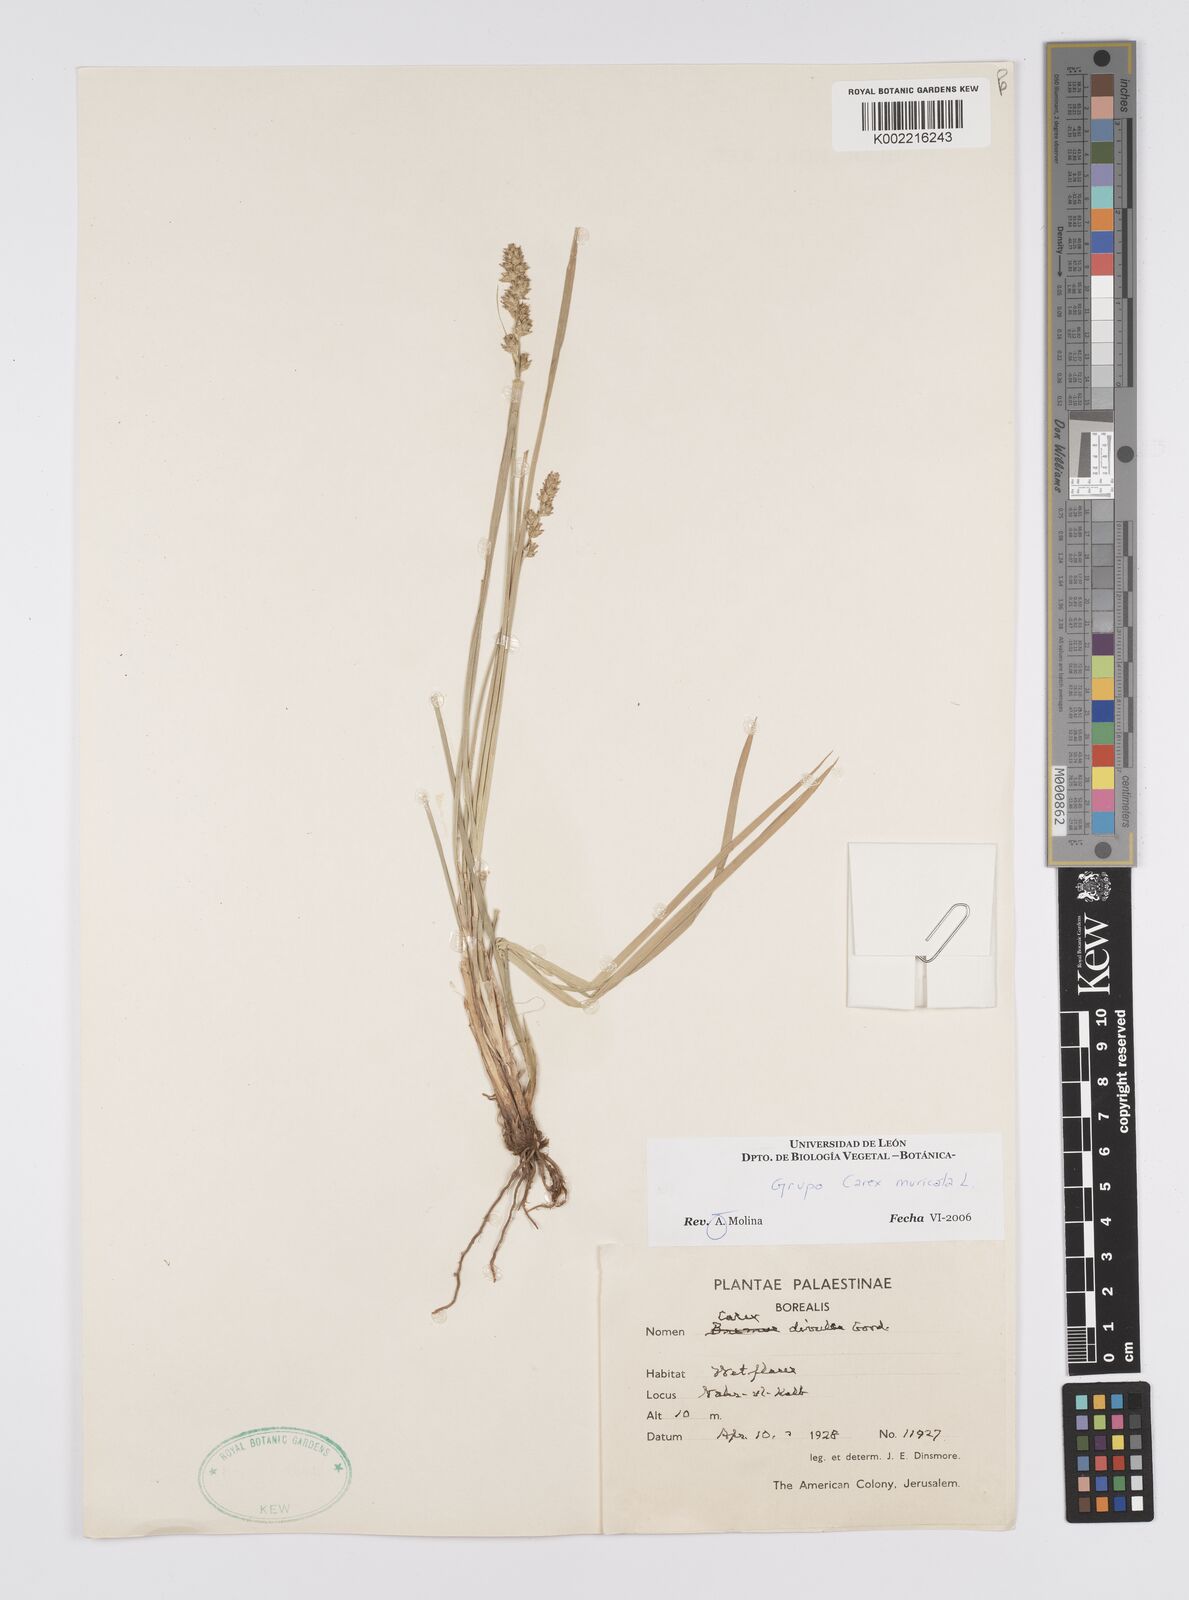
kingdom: Plantae
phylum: Tracheophyta
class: Liliopsida
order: Poales
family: Cyperaceae
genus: Carex
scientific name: Carex muricata
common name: Rough sedge
